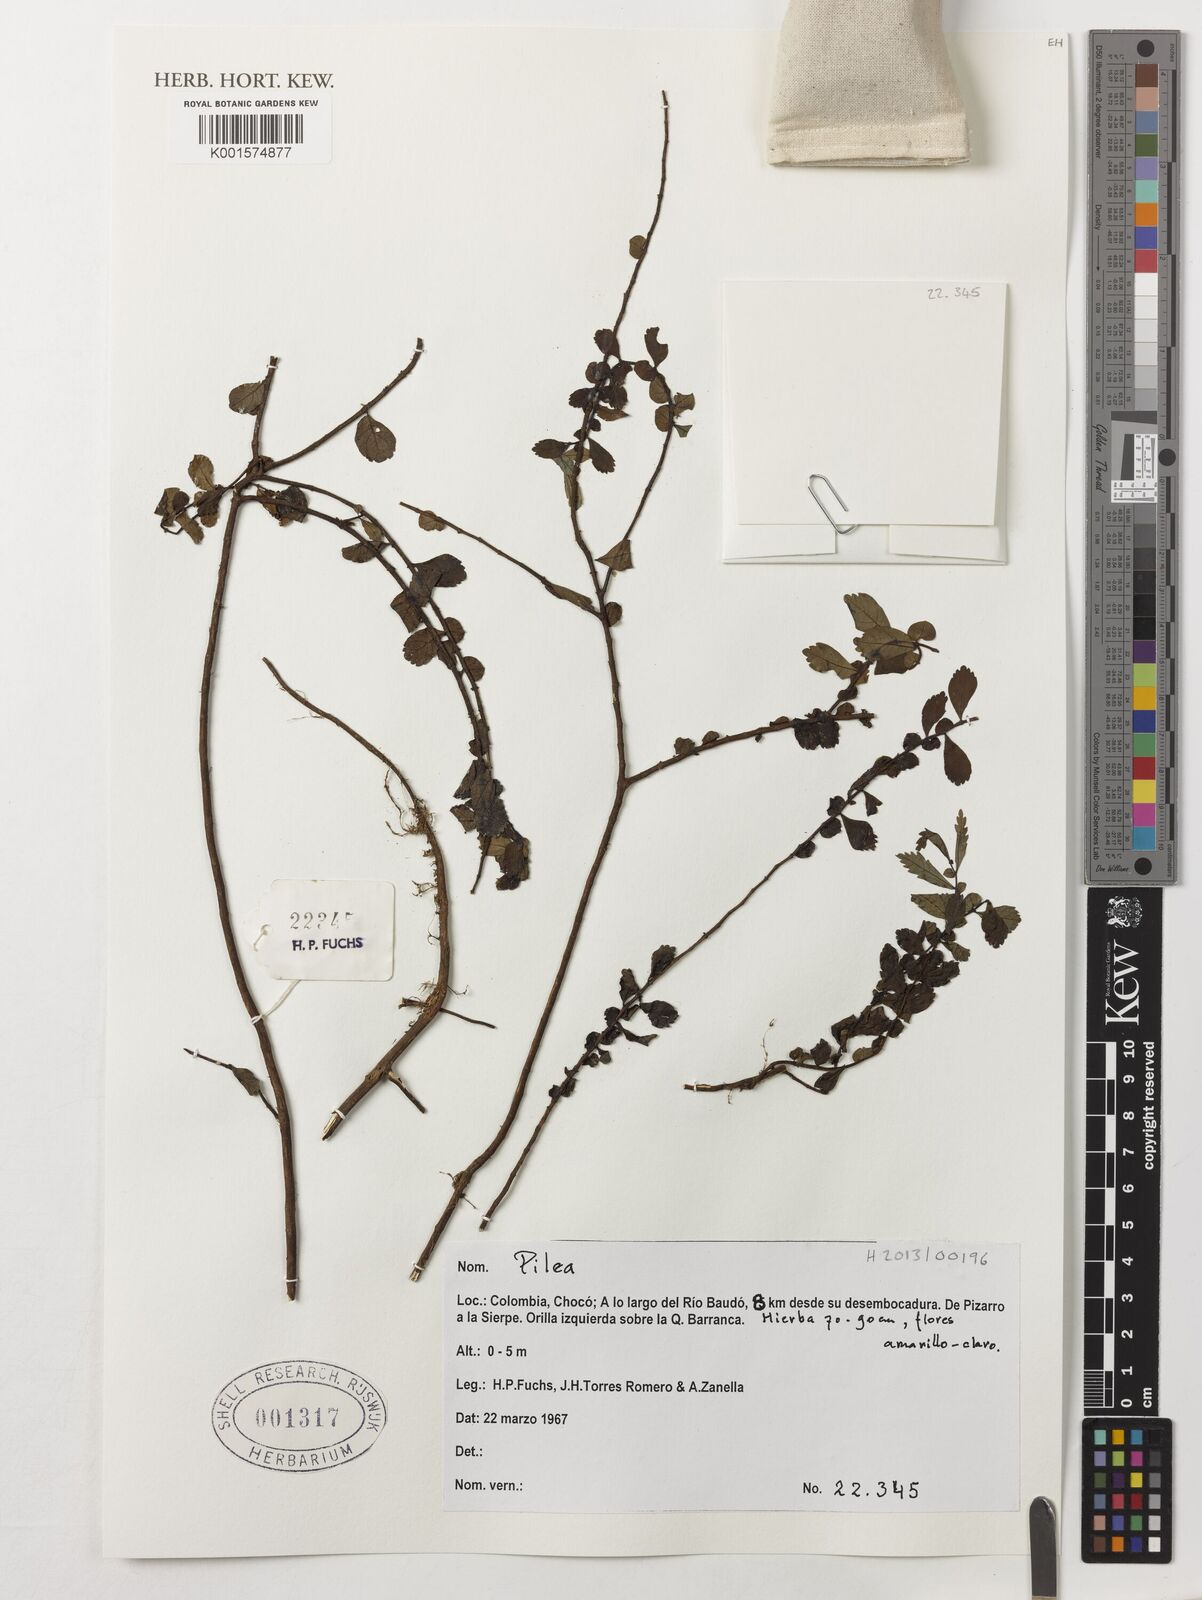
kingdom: Plantae
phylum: Tracheophyta
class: Magnoliopsida
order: Rosales
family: Urticaceae
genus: Pilea
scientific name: Pilea
